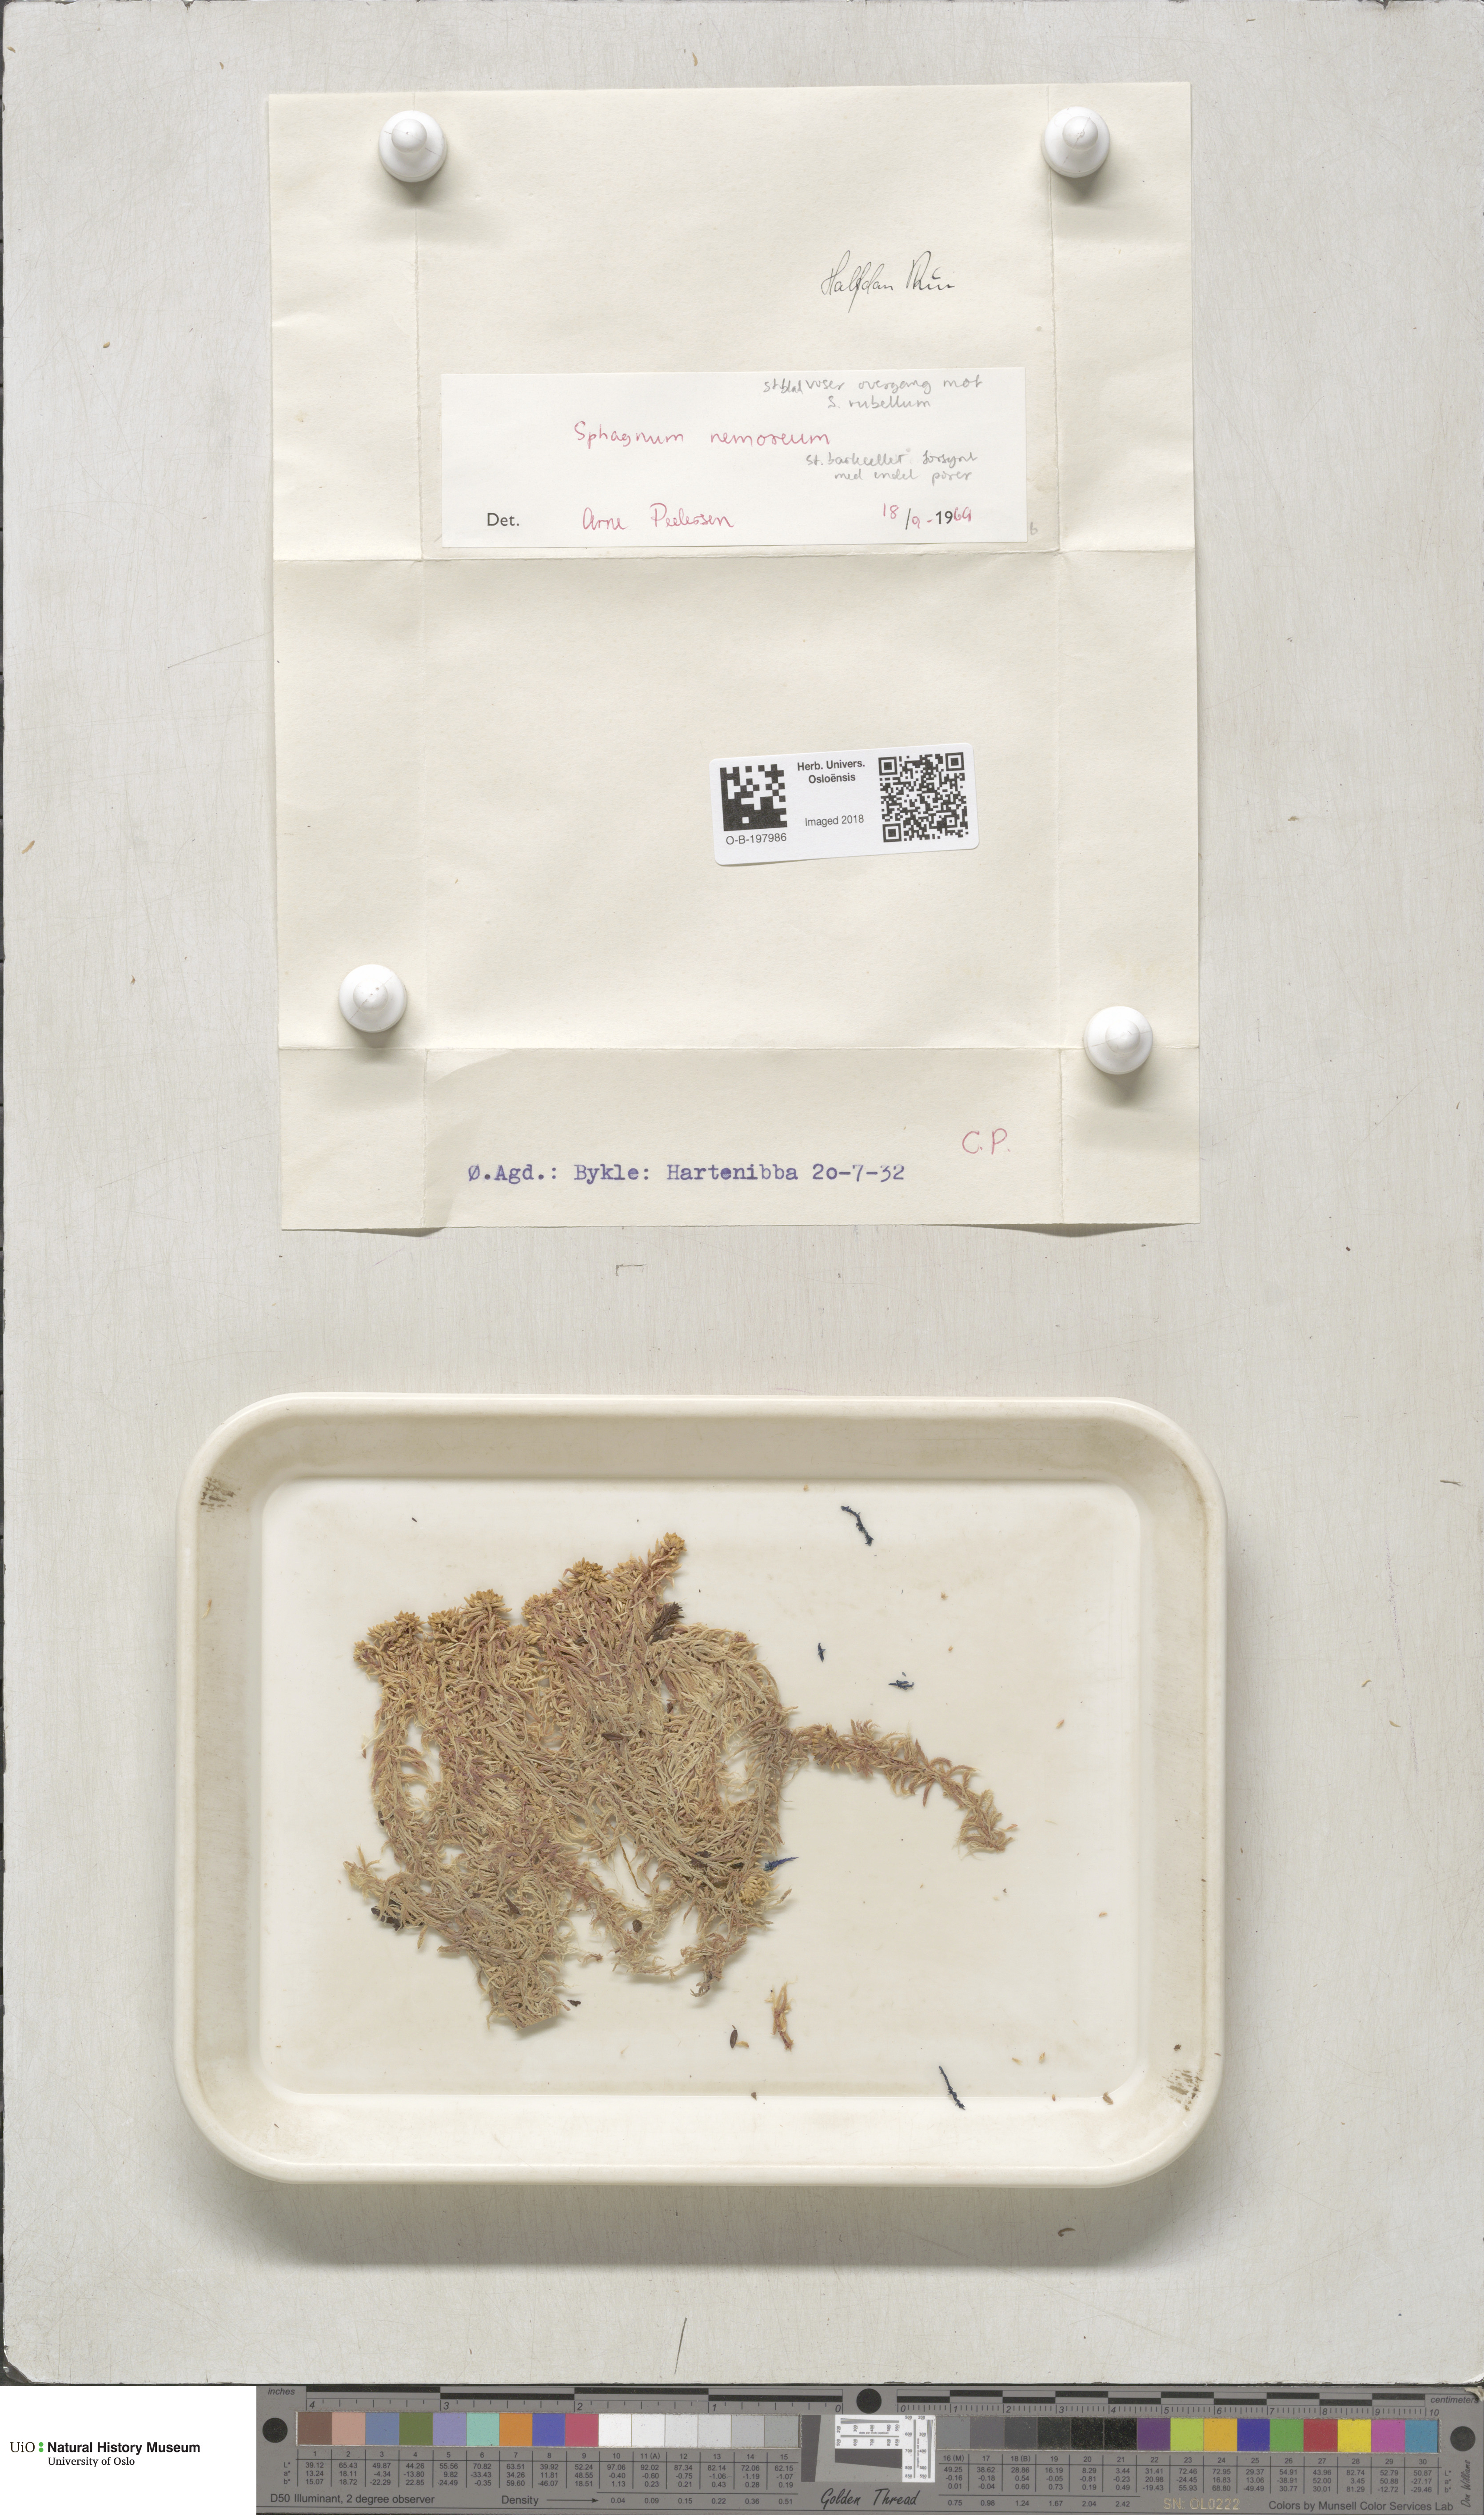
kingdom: Plantae
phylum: Bryophyta
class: Sphagnopsida
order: Sphagnales
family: Sphagnaceae
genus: Sphagnum
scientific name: Sphagnum capillifolium
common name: Small red peat moss
